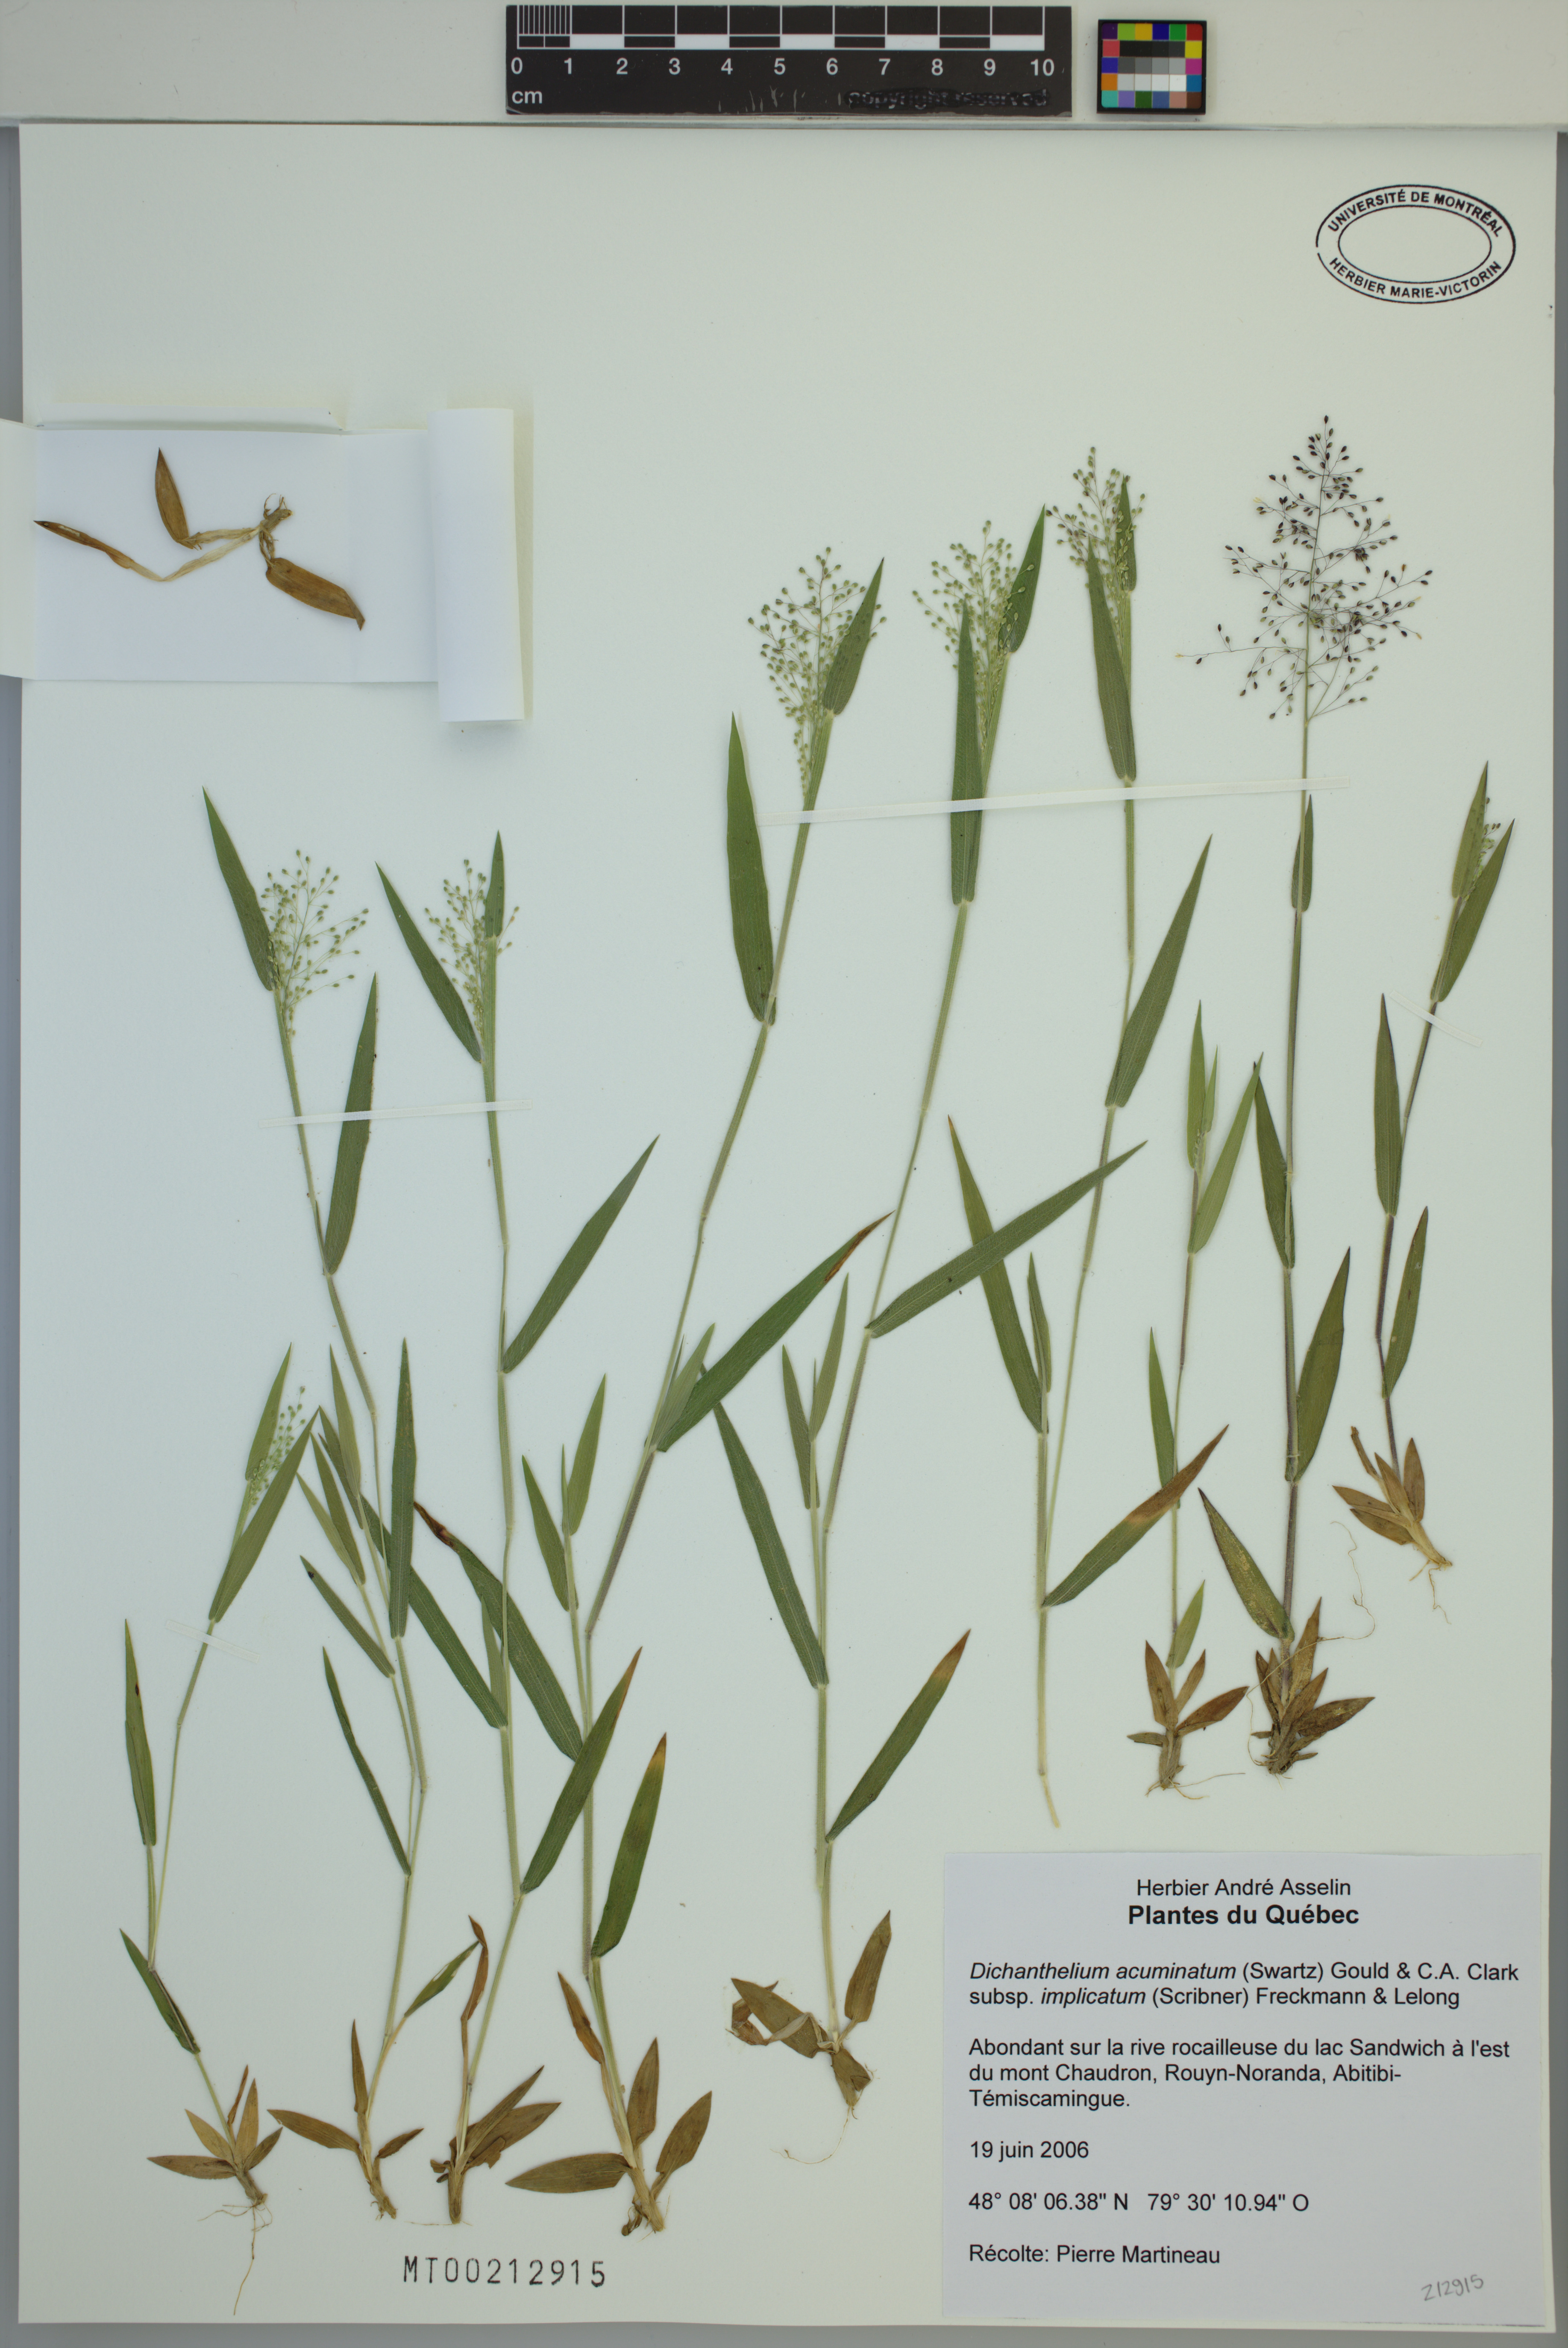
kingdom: Plantae
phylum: Tracheophyta
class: Liliopsida
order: Poales
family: Poaceae
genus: Dichanthelium
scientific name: Dichanthelium implicatum
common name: Slender-stemmed panicgrass
